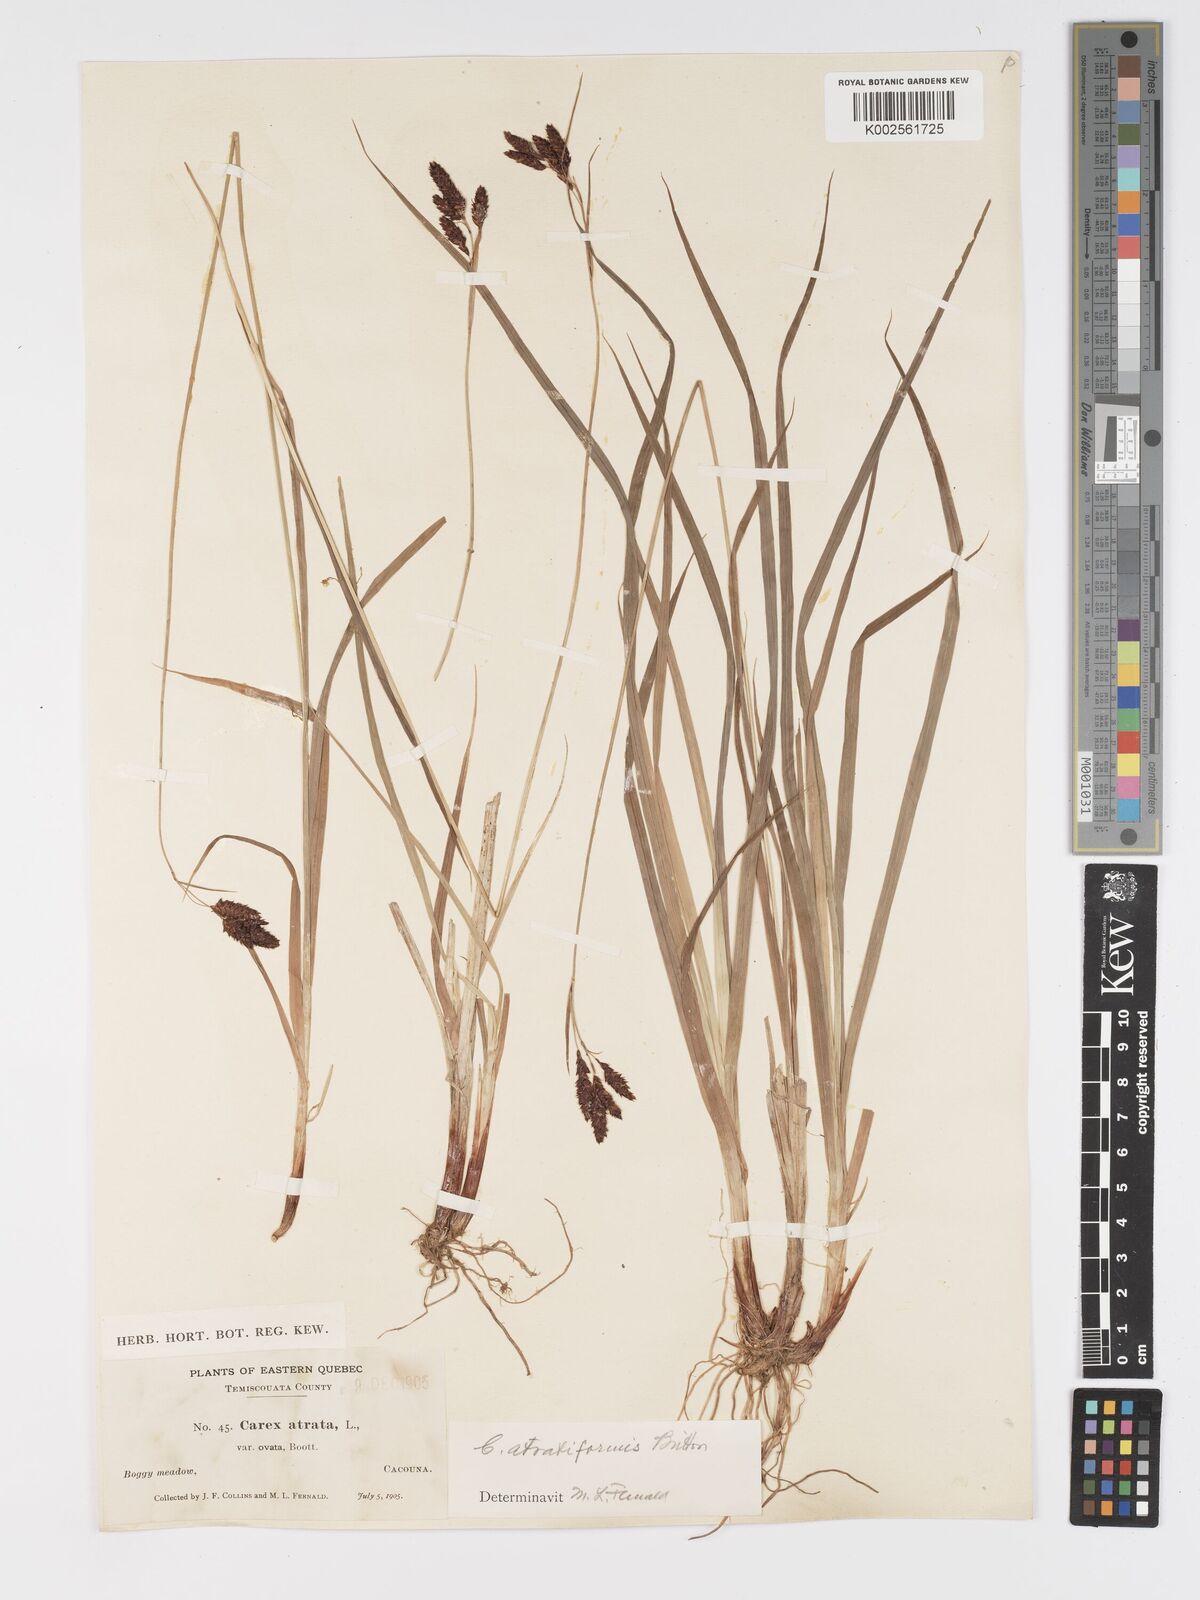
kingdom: Plantae
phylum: Tracheophyta
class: Liliopsida
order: Poales
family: Cyperaceae
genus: Carex
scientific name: Carex atratiformis
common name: Black sedge
